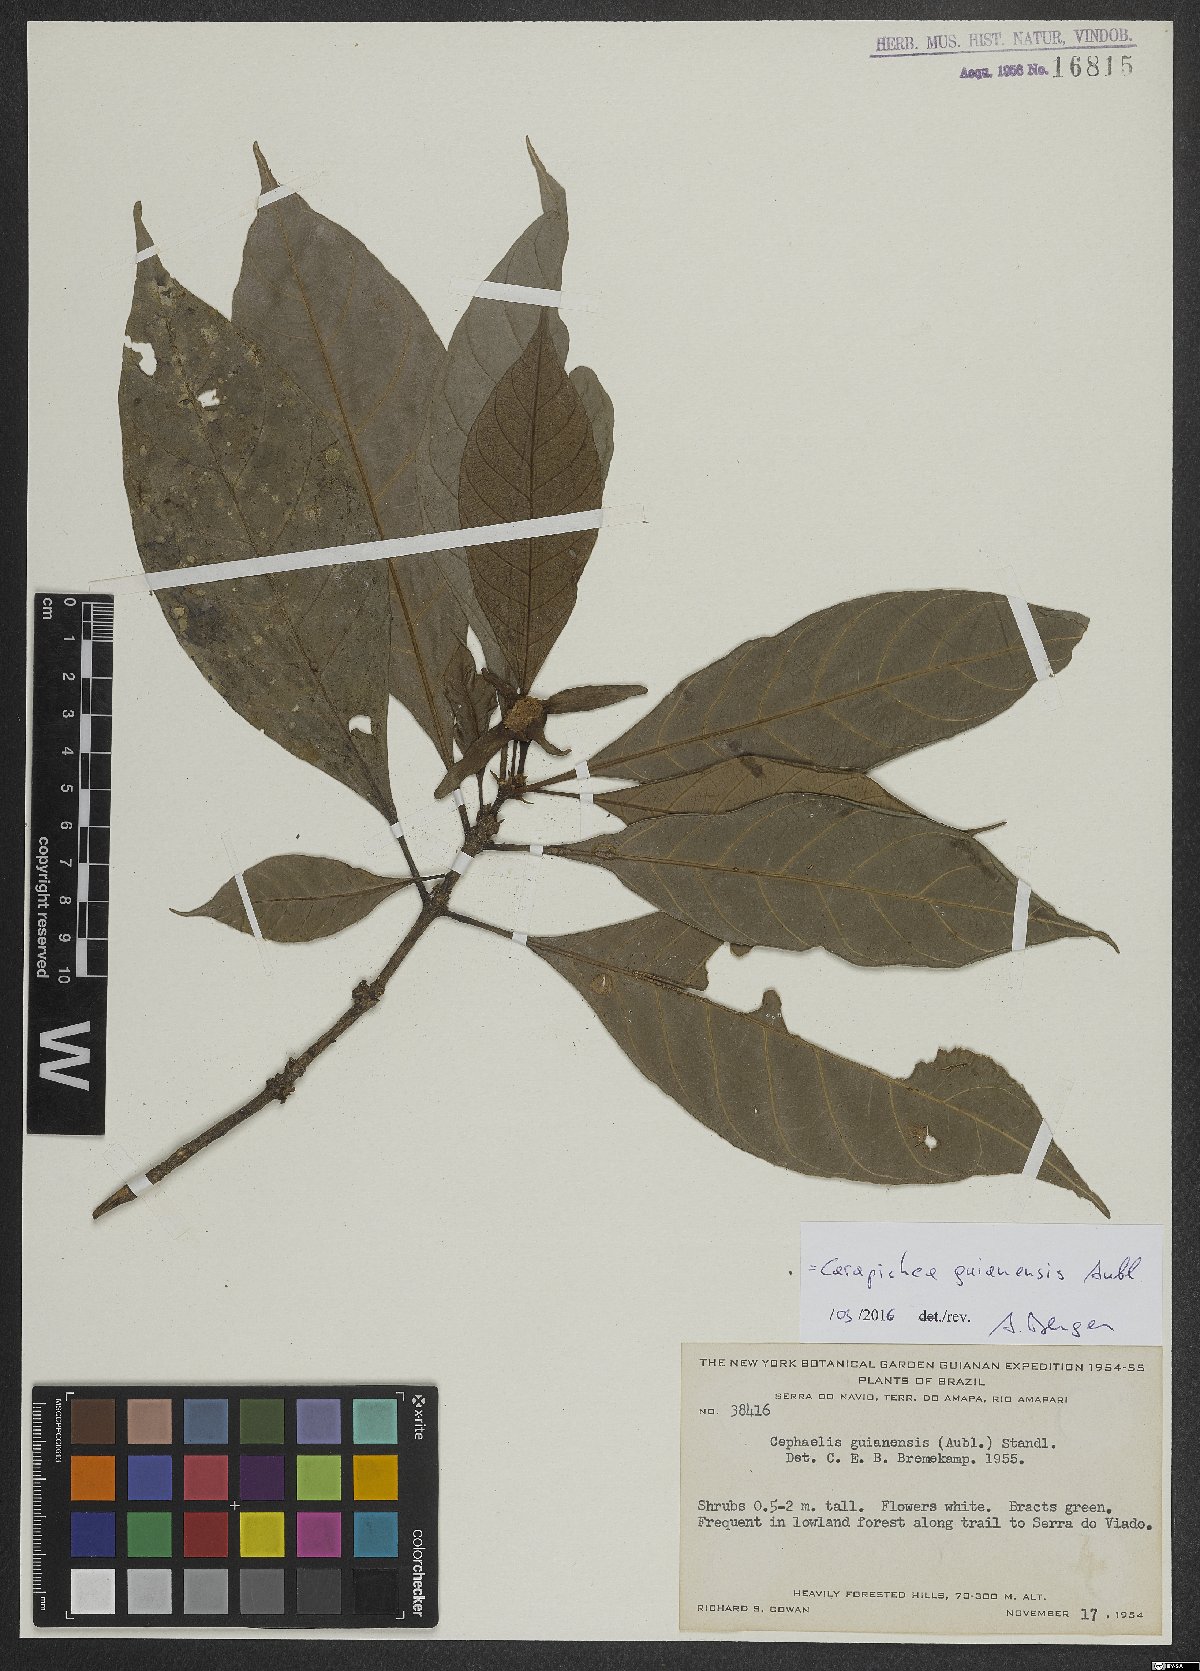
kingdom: Plantae
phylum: Tracheophyta
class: Magnoliopsida
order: Gentianales
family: Rubiaceae
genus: Carapichea
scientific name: Carapichea guianensis
